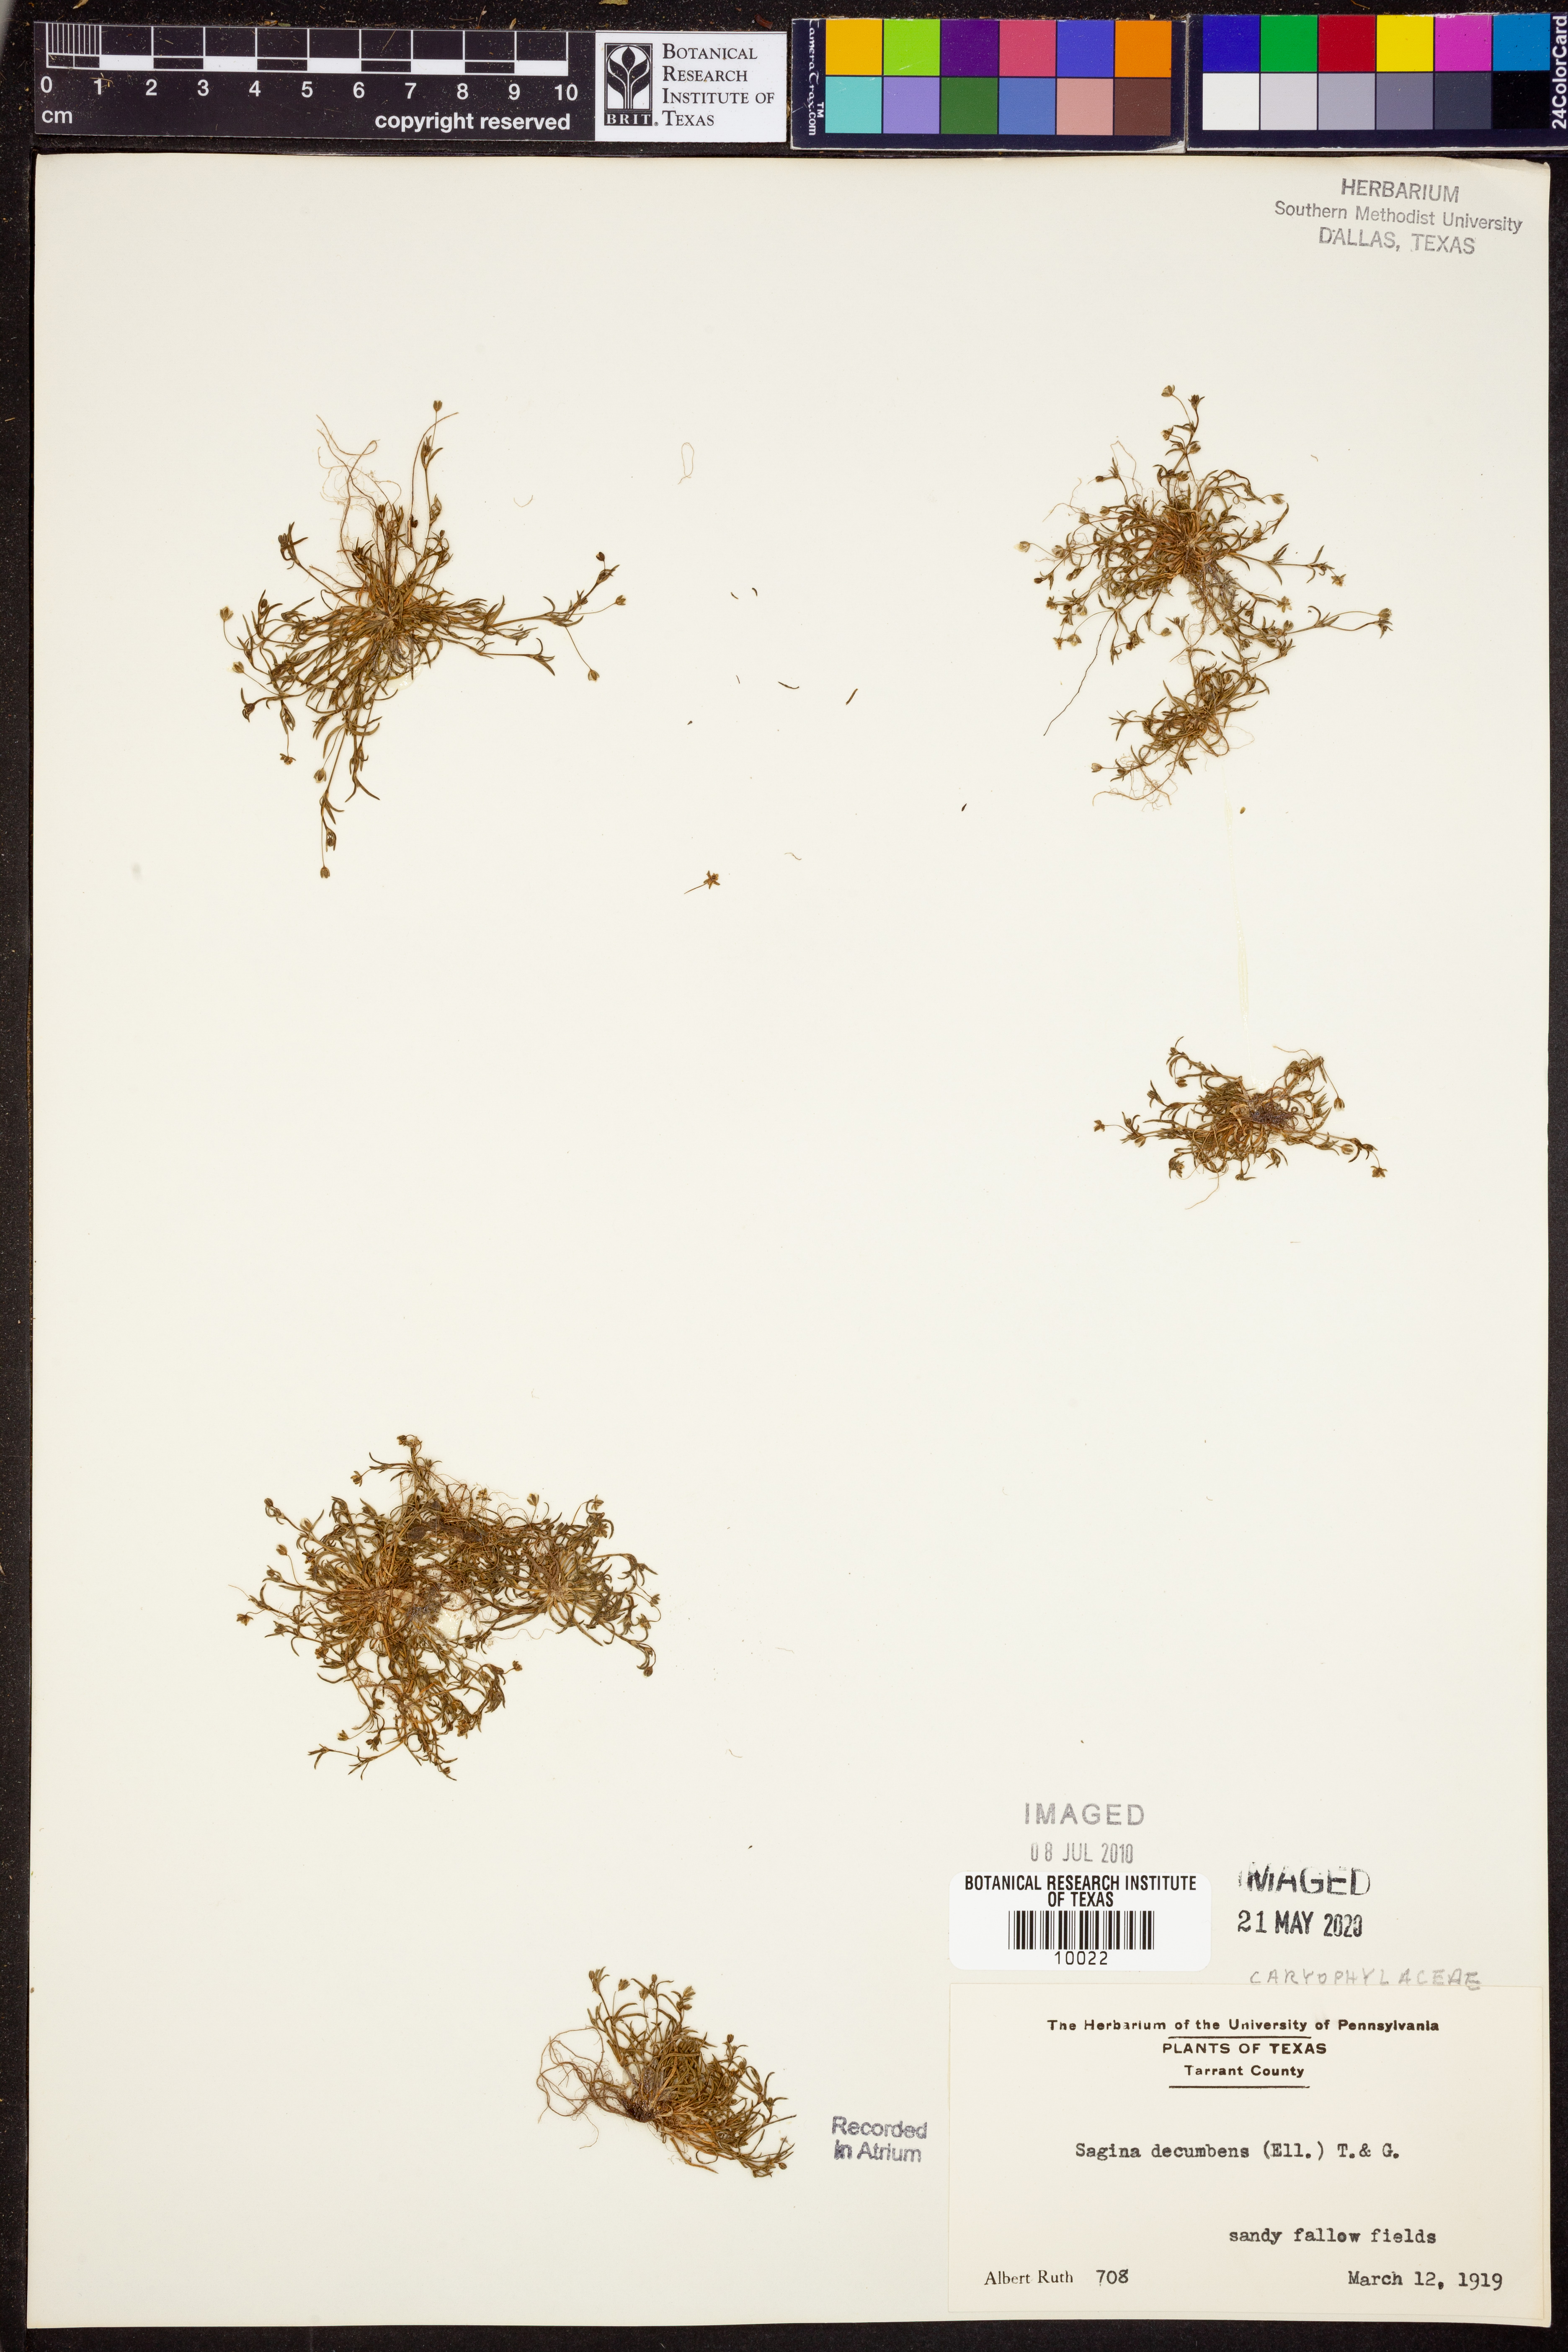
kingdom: Plantae
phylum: Tracheophyta
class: Magnoliopsida
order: Caryophyllales
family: Caryophyllaceae
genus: Sagina
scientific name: Sagina decumbens
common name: Decumbent pearlwort
